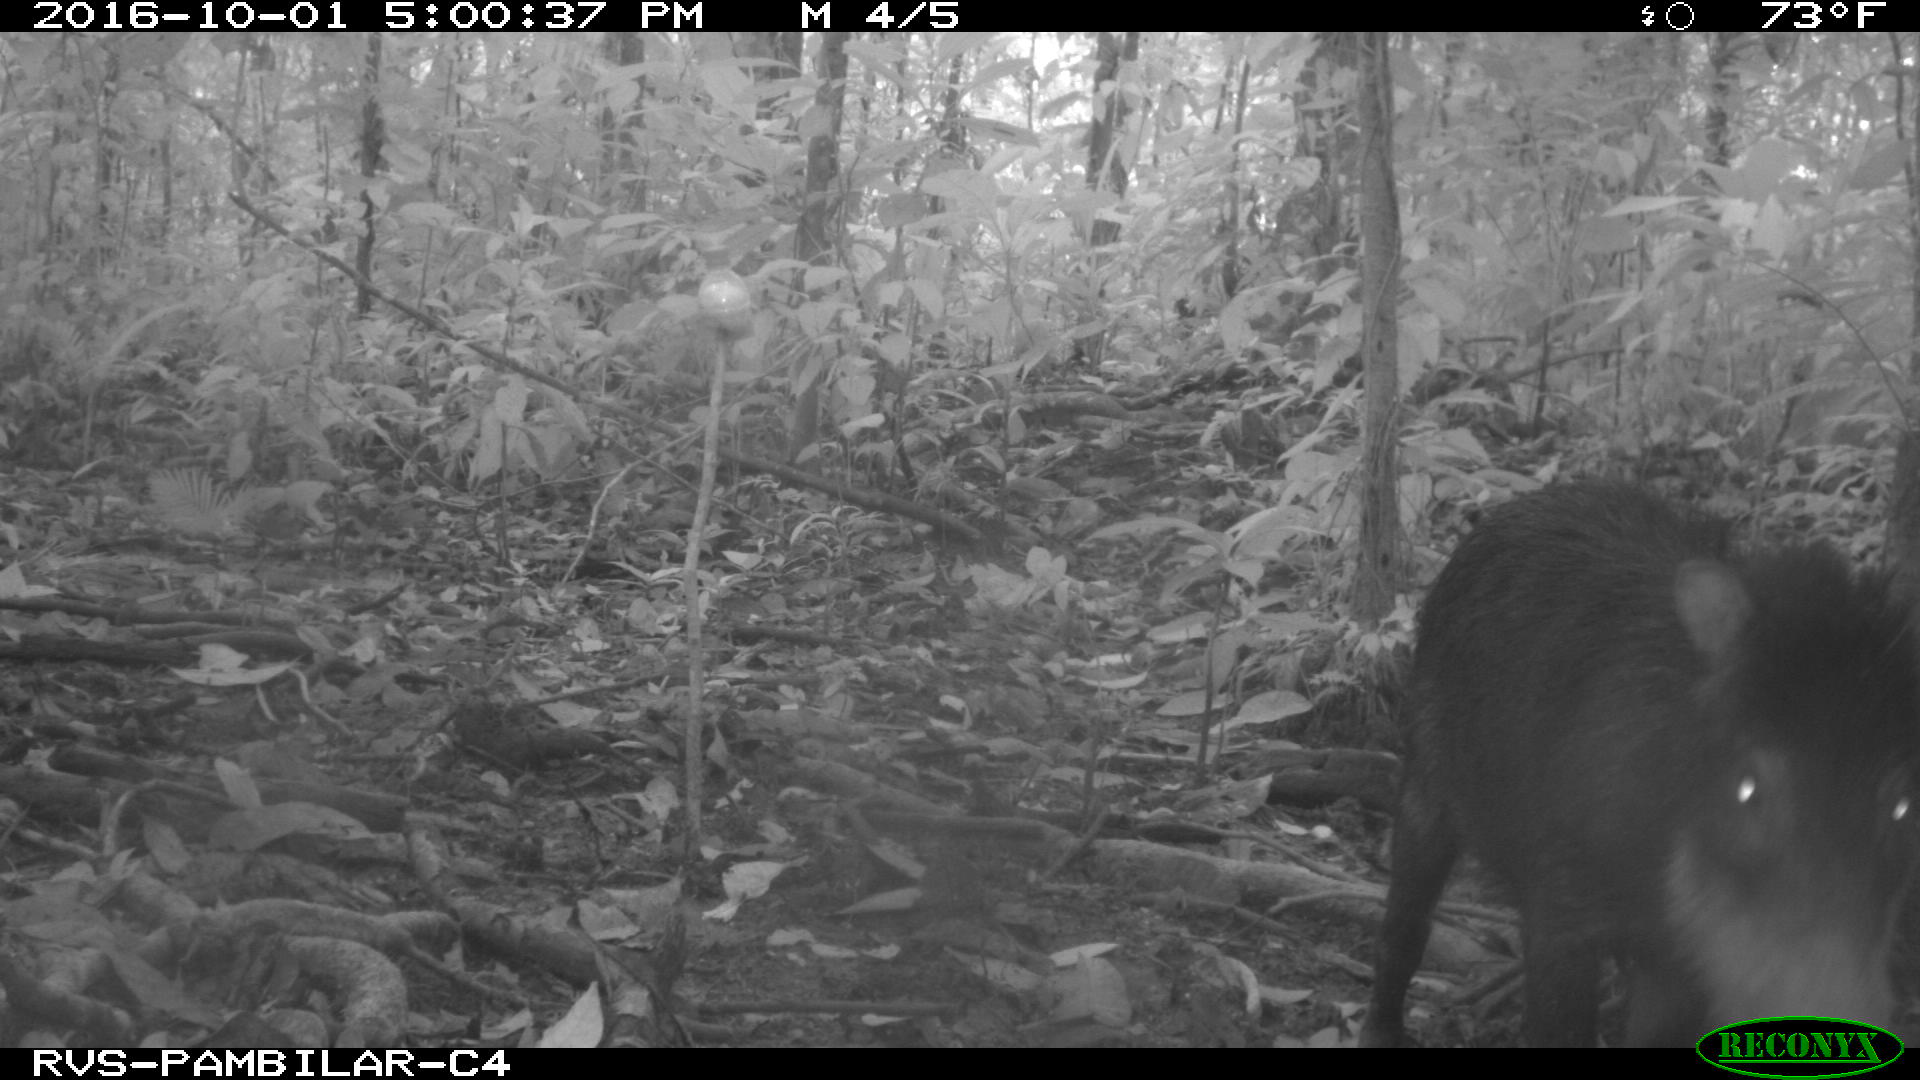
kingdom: Animalia
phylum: Chordata
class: Mammalia
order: Artiodactyla
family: Tayassuidae
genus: Tayassu
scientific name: Tayassu pecari
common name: White-lipped peccary
